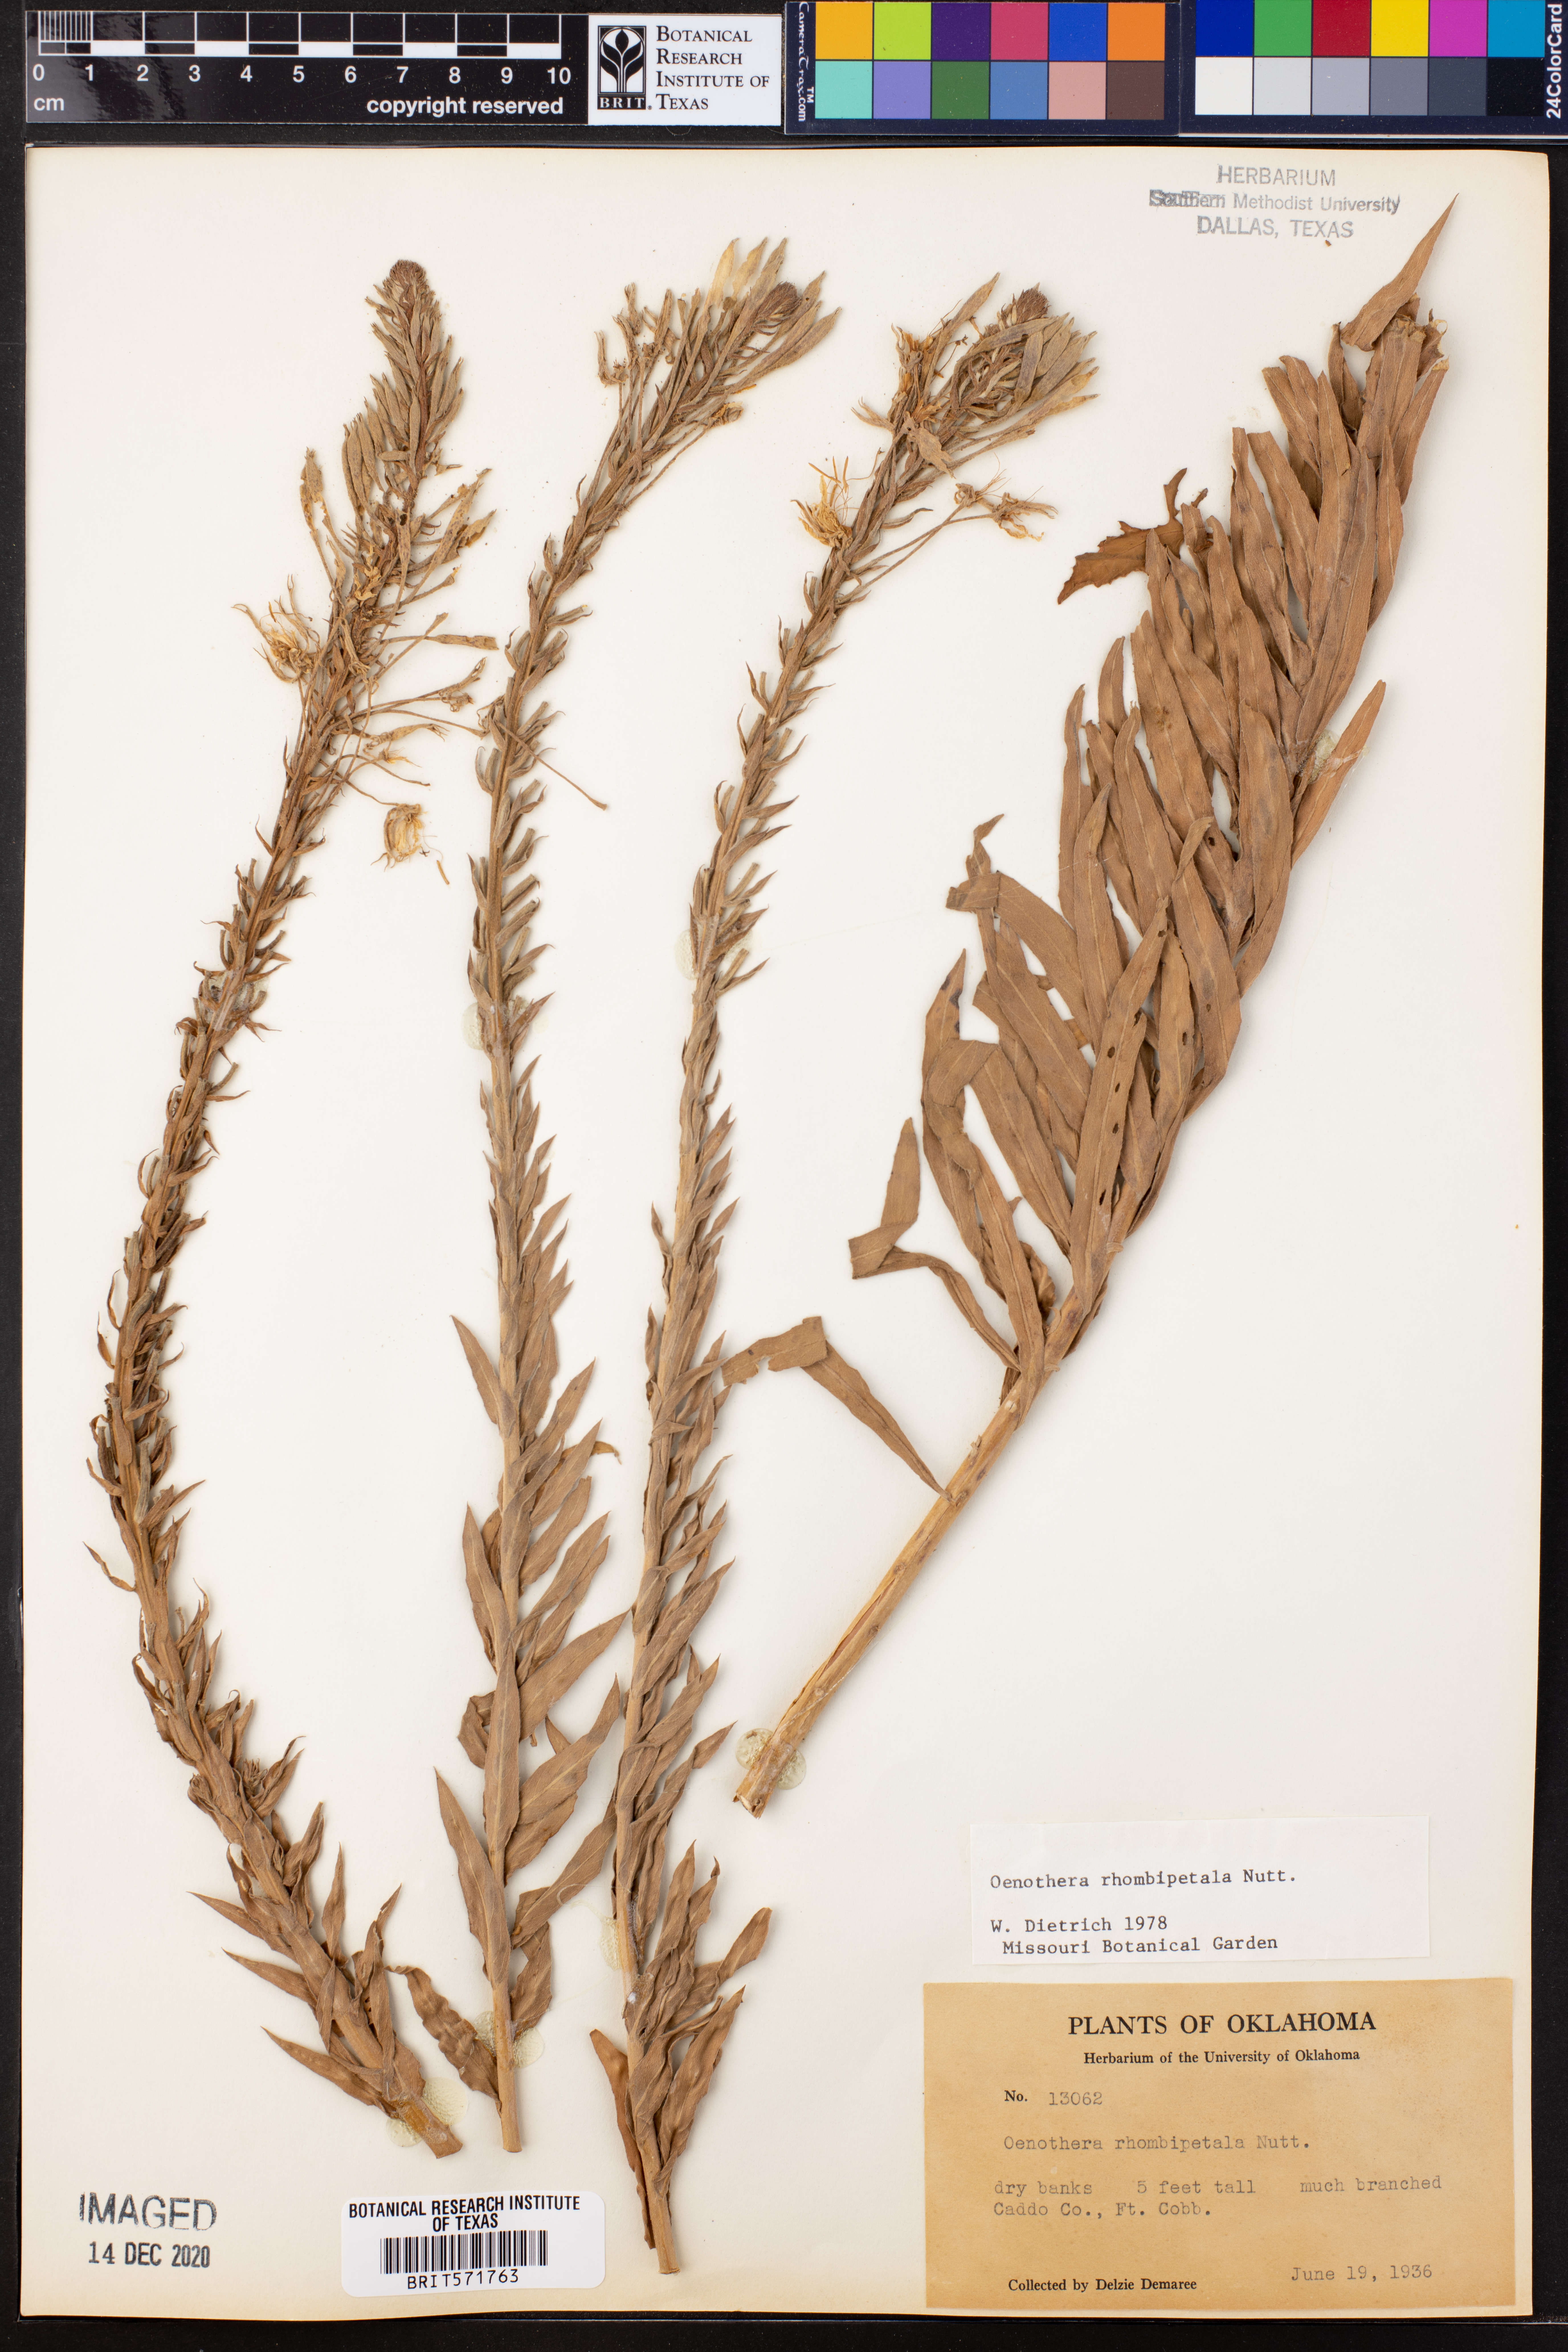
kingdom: Plantae
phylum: Tracheophyta
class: Magnoliopsida
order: Myrtales
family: Onagraceae
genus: Oenothera
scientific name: Oenothera rhombipetala
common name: Four-points evening-primrose
